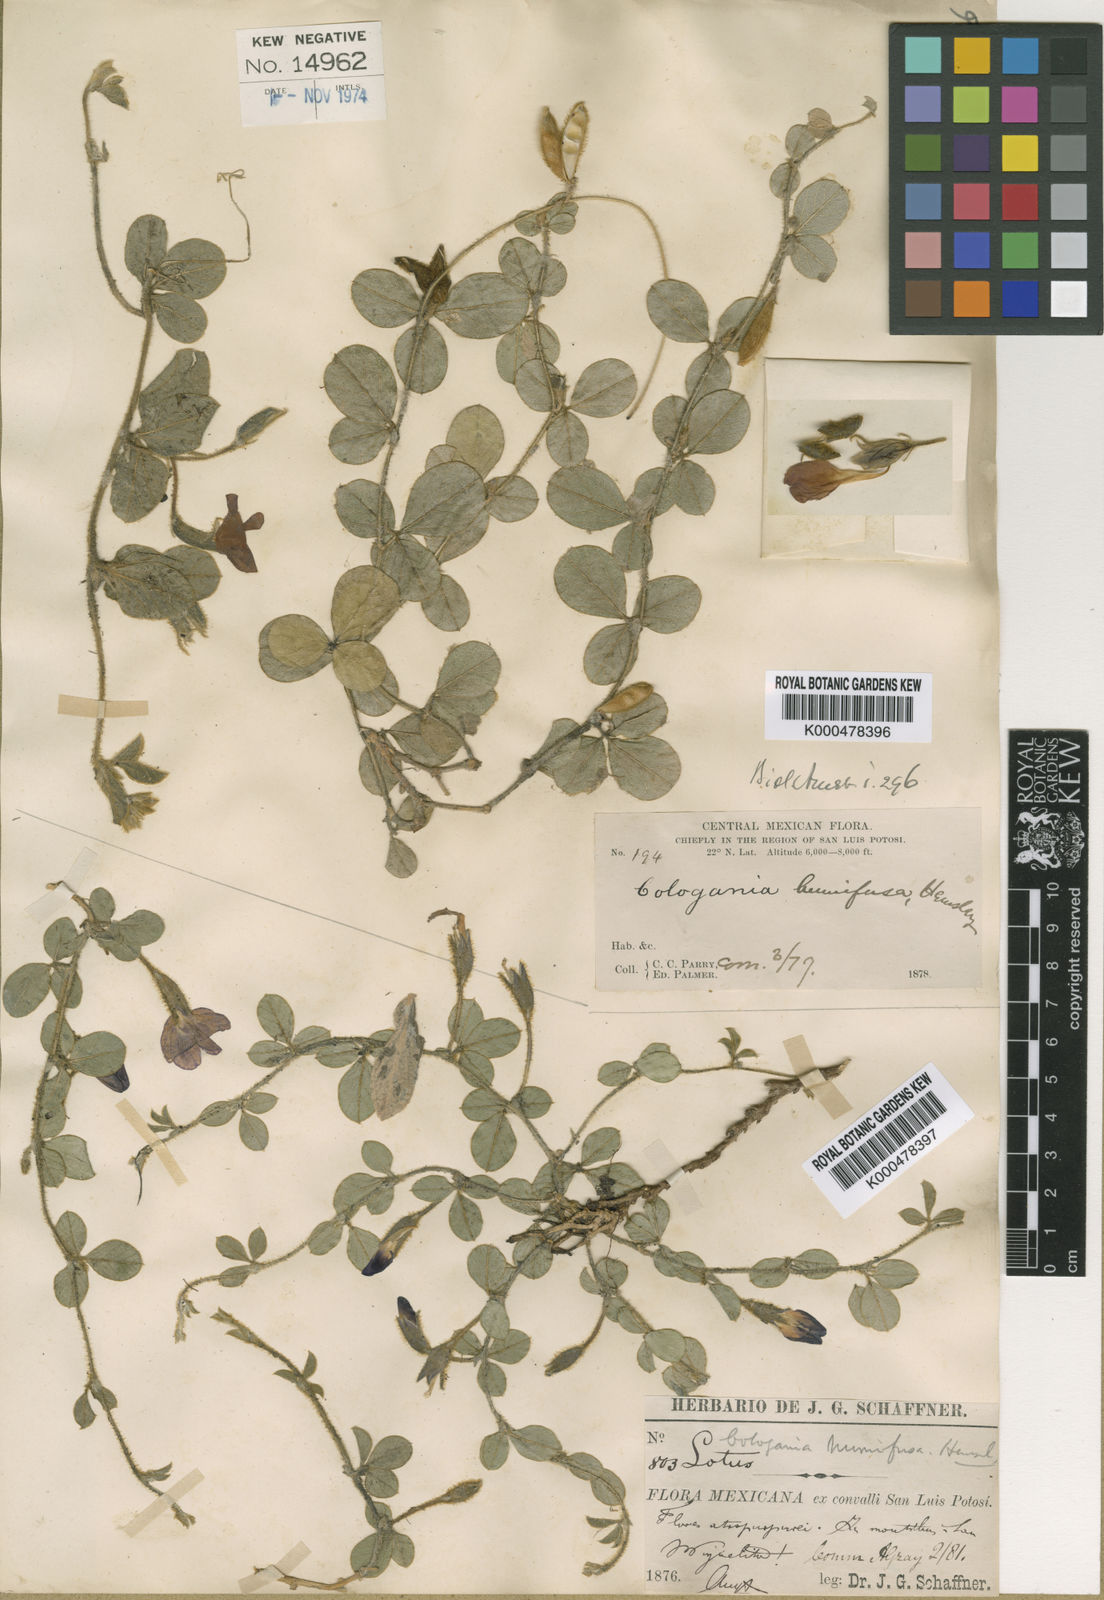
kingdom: Plantae
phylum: Tracheophyta
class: Magnoliopsida
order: Fabales
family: Fabaceae
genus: Cologania
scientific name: Cologania obovata
